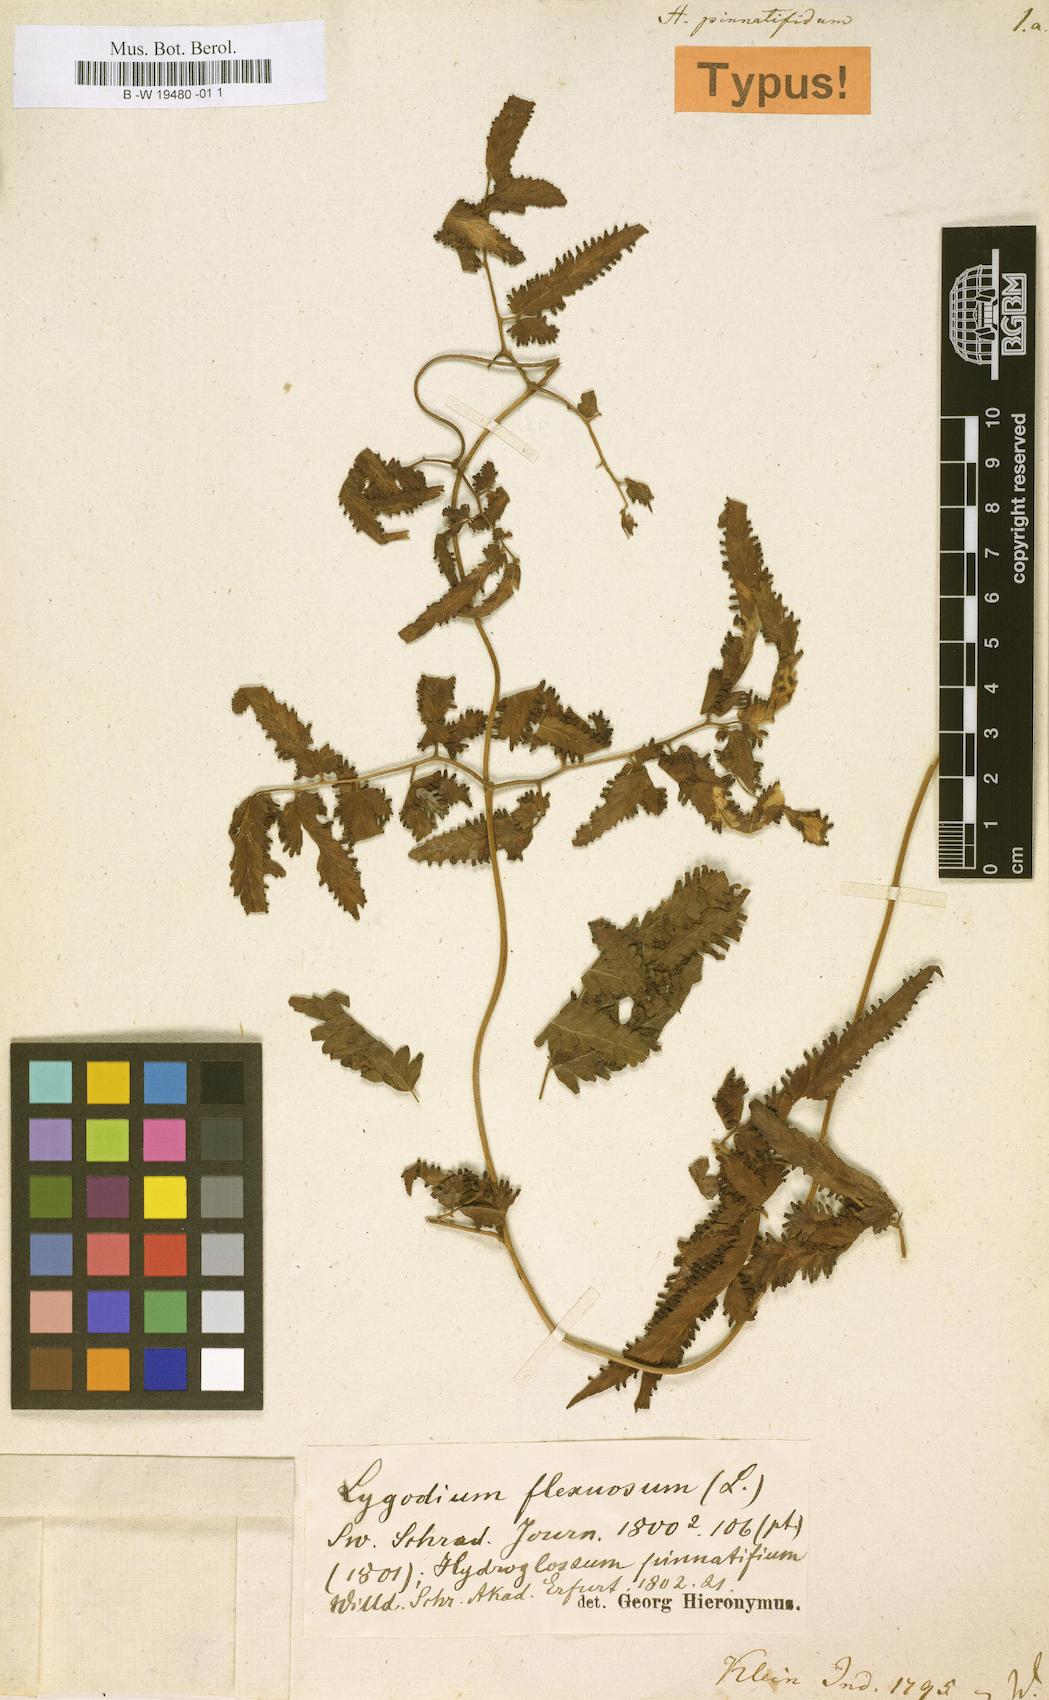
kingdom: Plantae
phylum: Tracheophyta
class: Polypodiopsida
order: Schizaeales
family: Lygodiaceae
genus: Lygodium
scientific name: Lygodium flexuosum
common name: Maidenhair creeper
